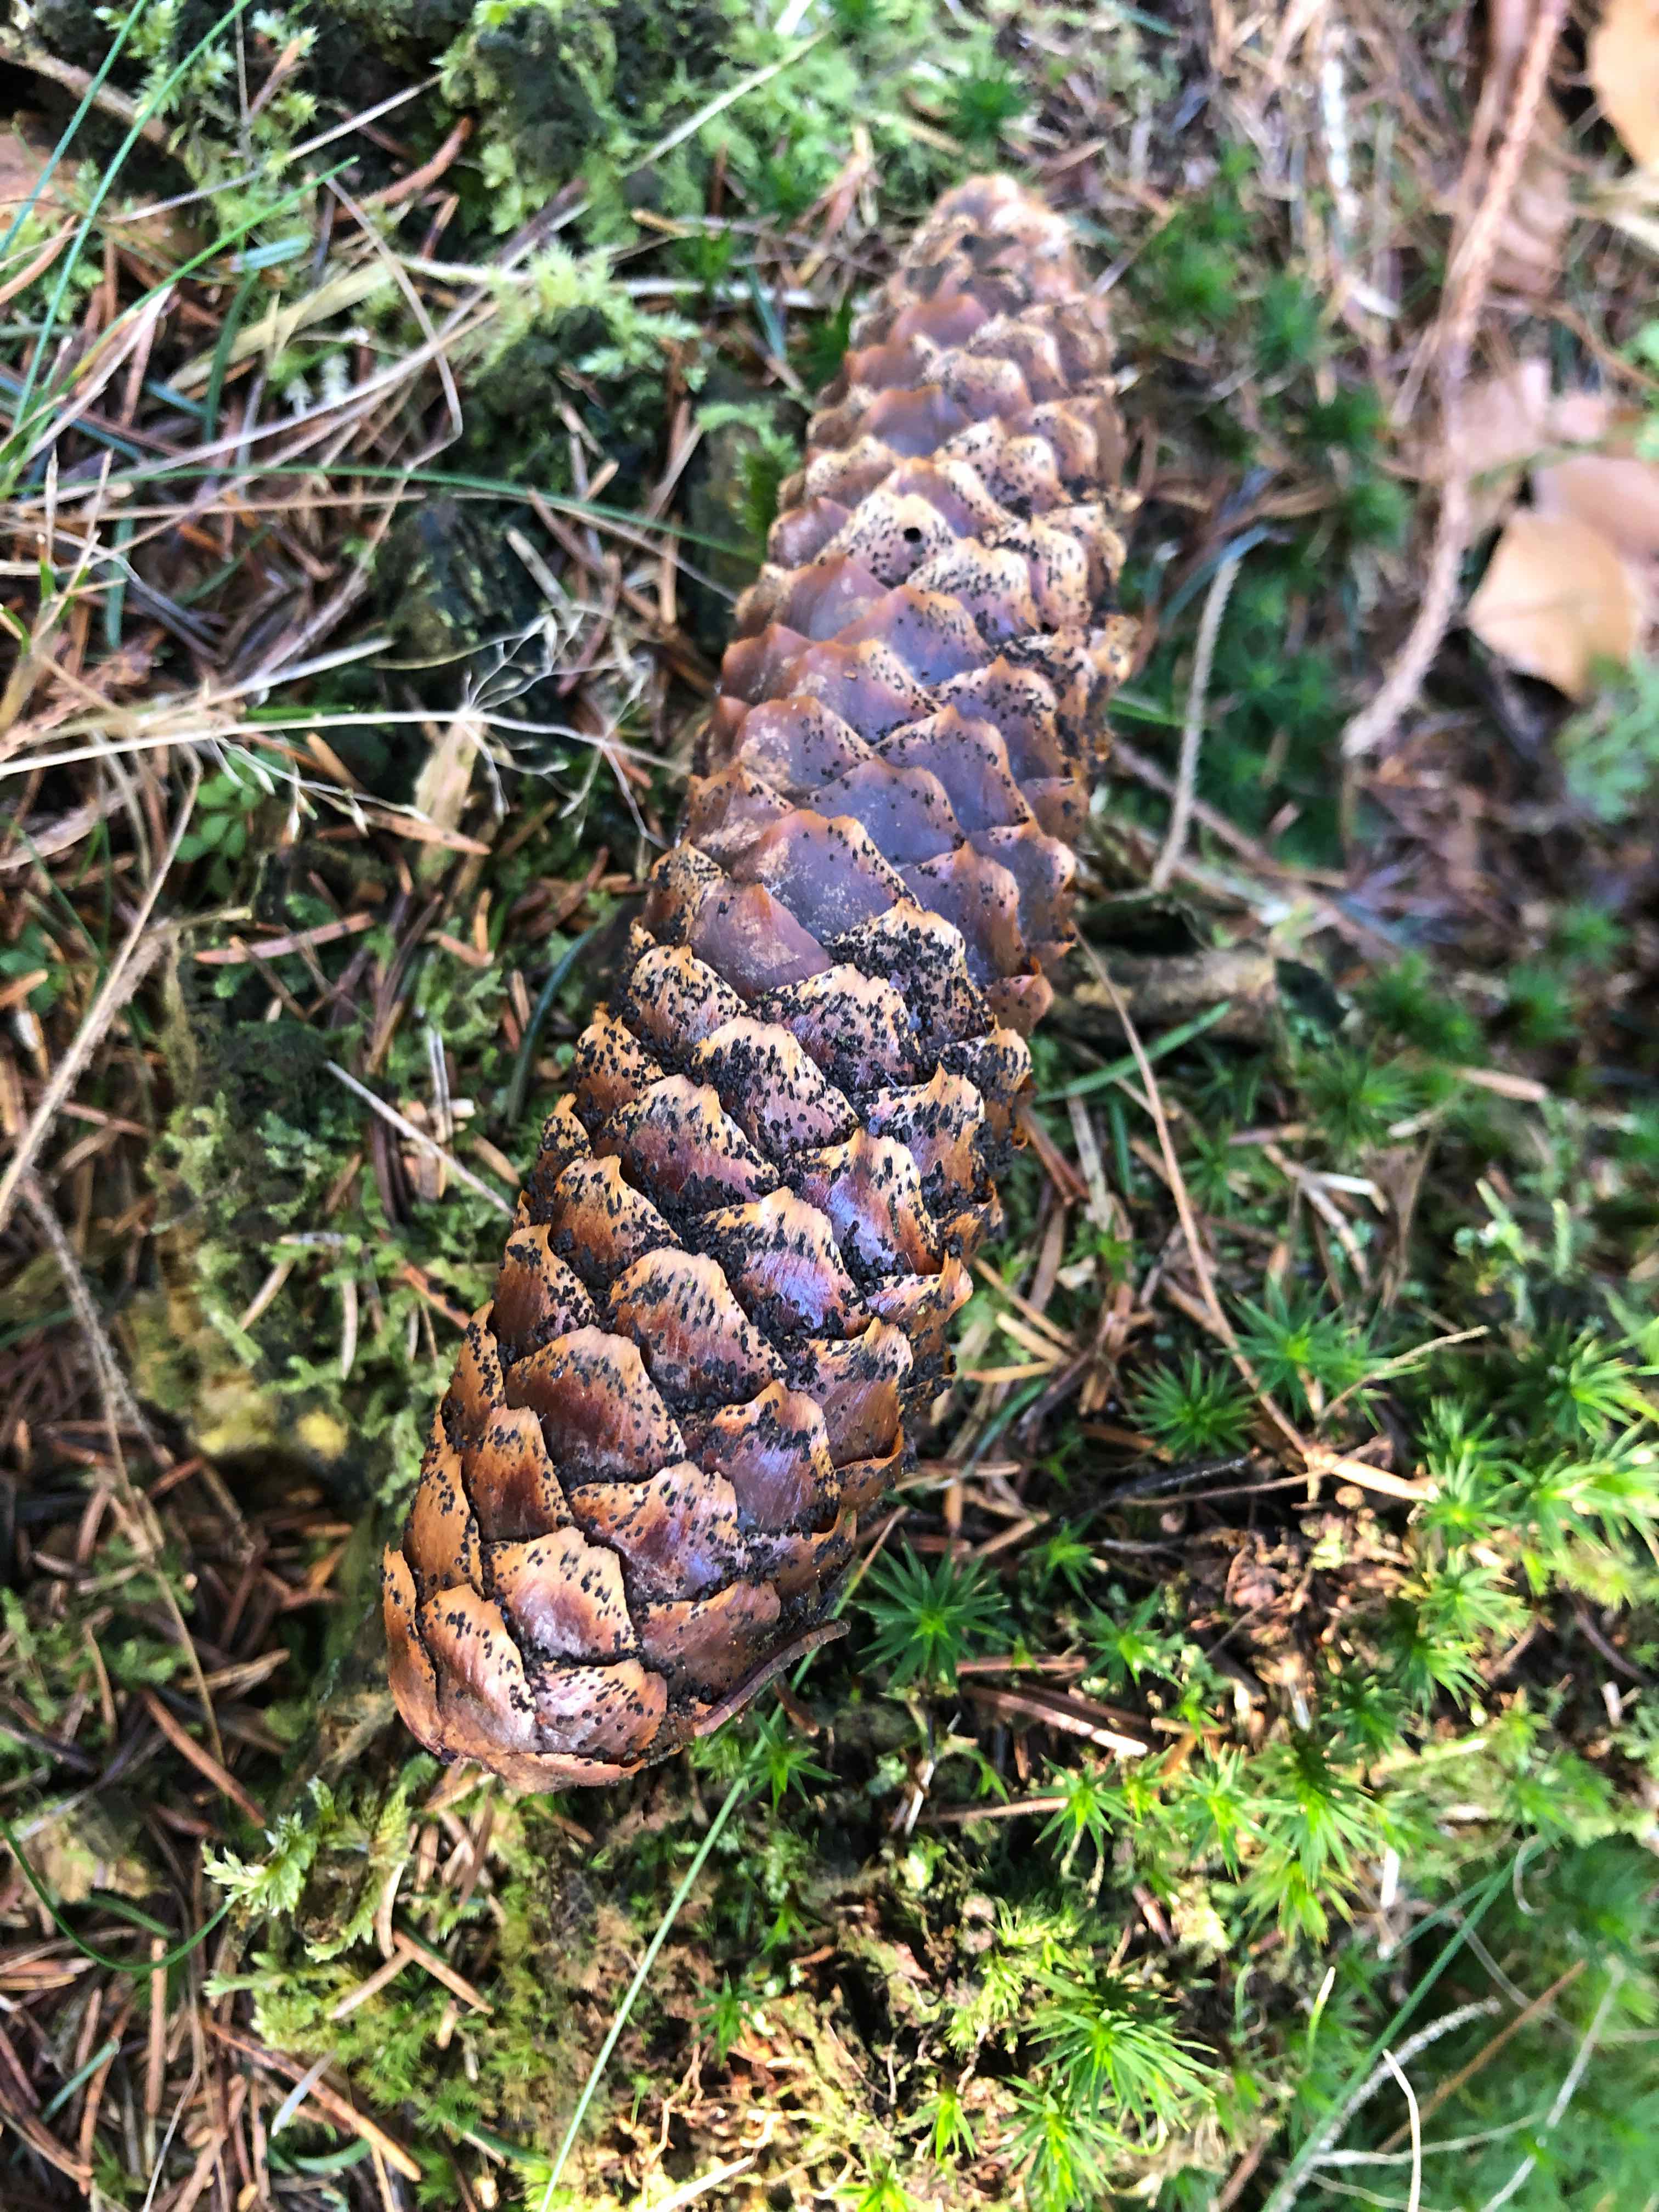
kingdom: Fungi
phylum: Ascomycota
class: Sordariomycetes
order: Diaporthales
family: Gnomoniaceae
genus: Sirococcus
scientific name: Sirococcus conigenus
